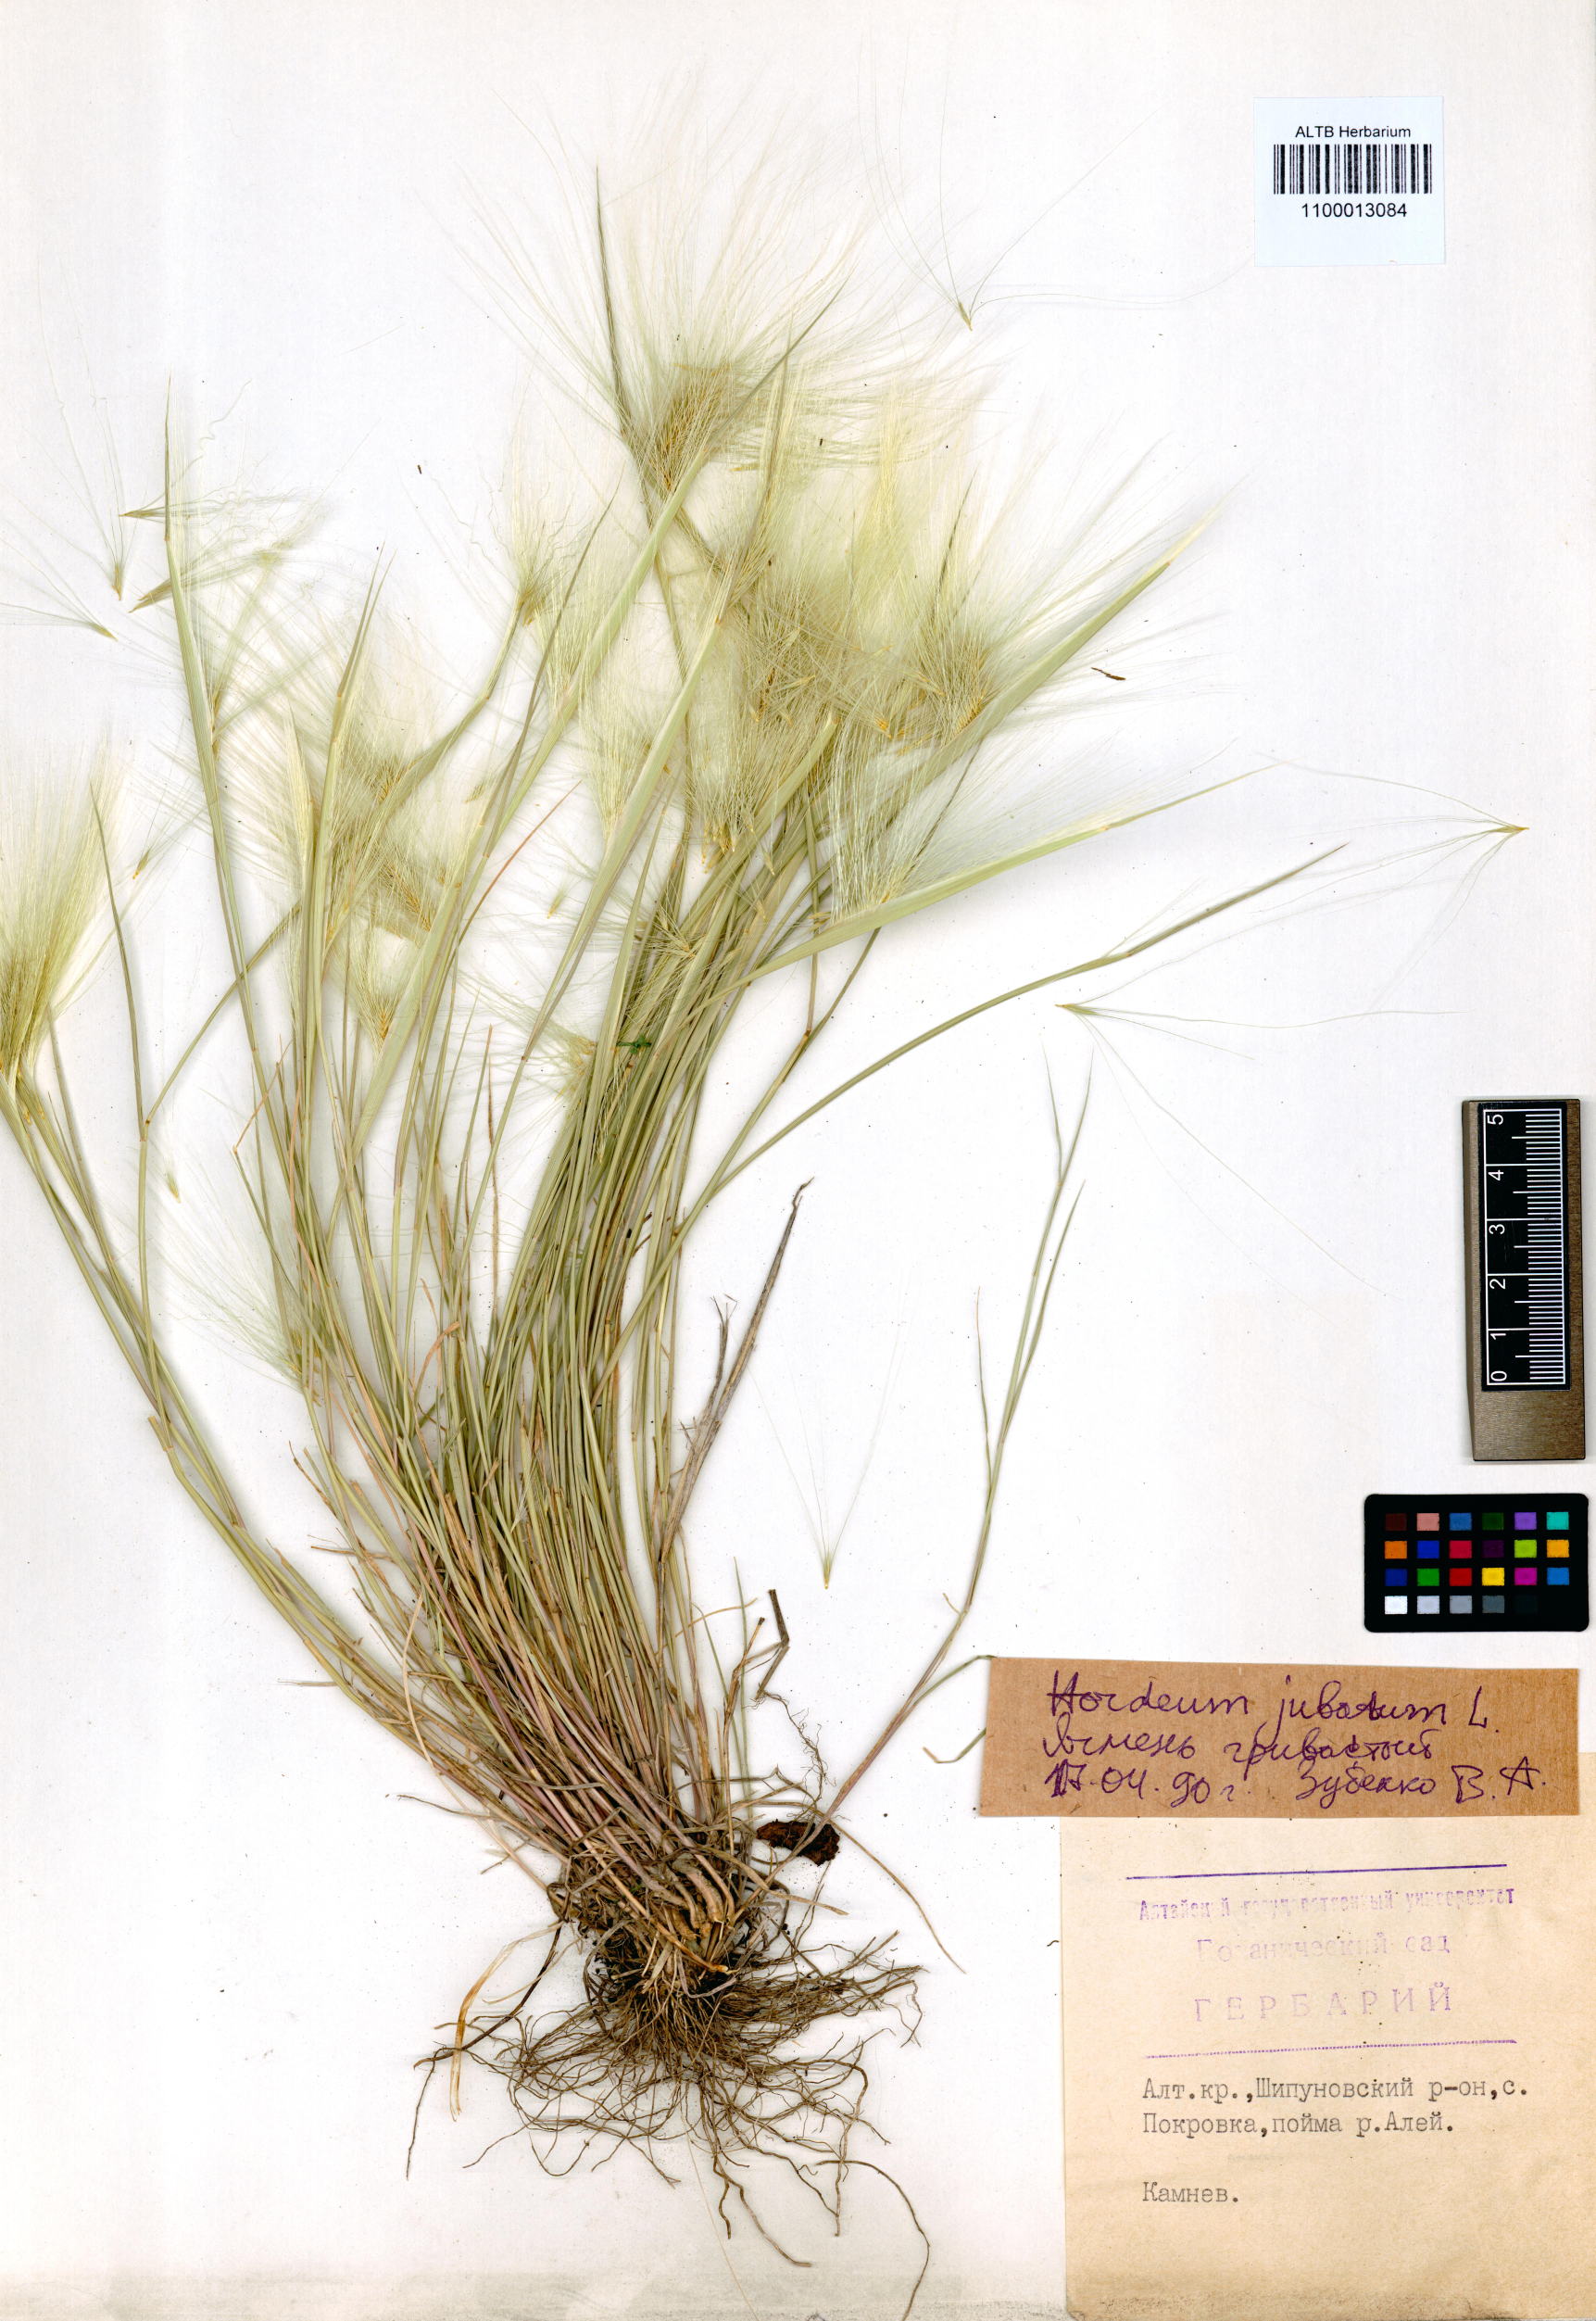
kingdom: Plantae
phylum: Tracheophyta
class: Liliopsida
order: Poales
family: Poaceae
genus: Hordeum
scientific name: Hordeum jubatum
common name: Foxtail barley
